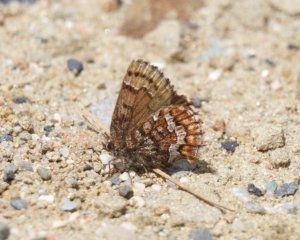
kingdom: Animalia
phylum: Arthropoda
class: Insecta
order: Lepidoptera
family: Lycaenidae
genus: Incisalia
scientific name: Incisalia niphon
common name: Eastern Pine Elfin
